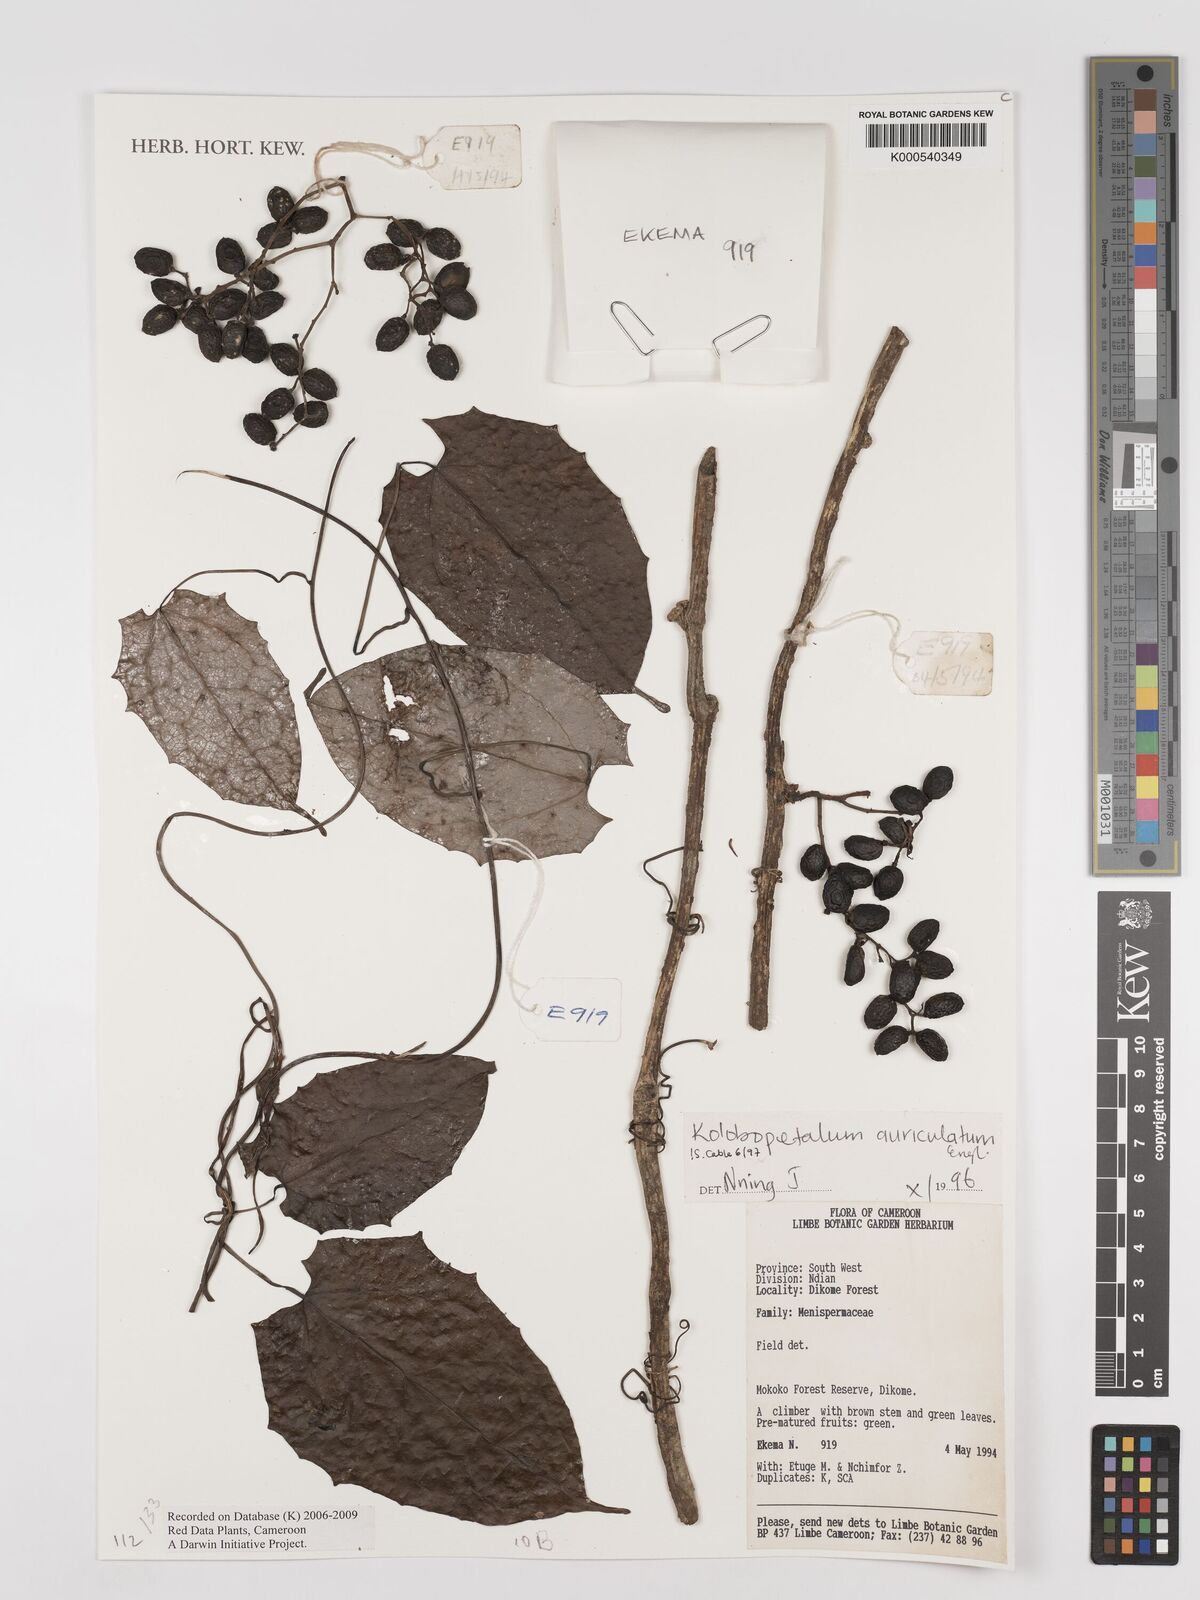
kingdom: Plantae
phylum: Tracheophyta
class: Magnoliopsida
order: Ranunculales
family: Menispermaceae
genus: Kolobopetalum
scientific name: Kolobopetalum auriculatum
